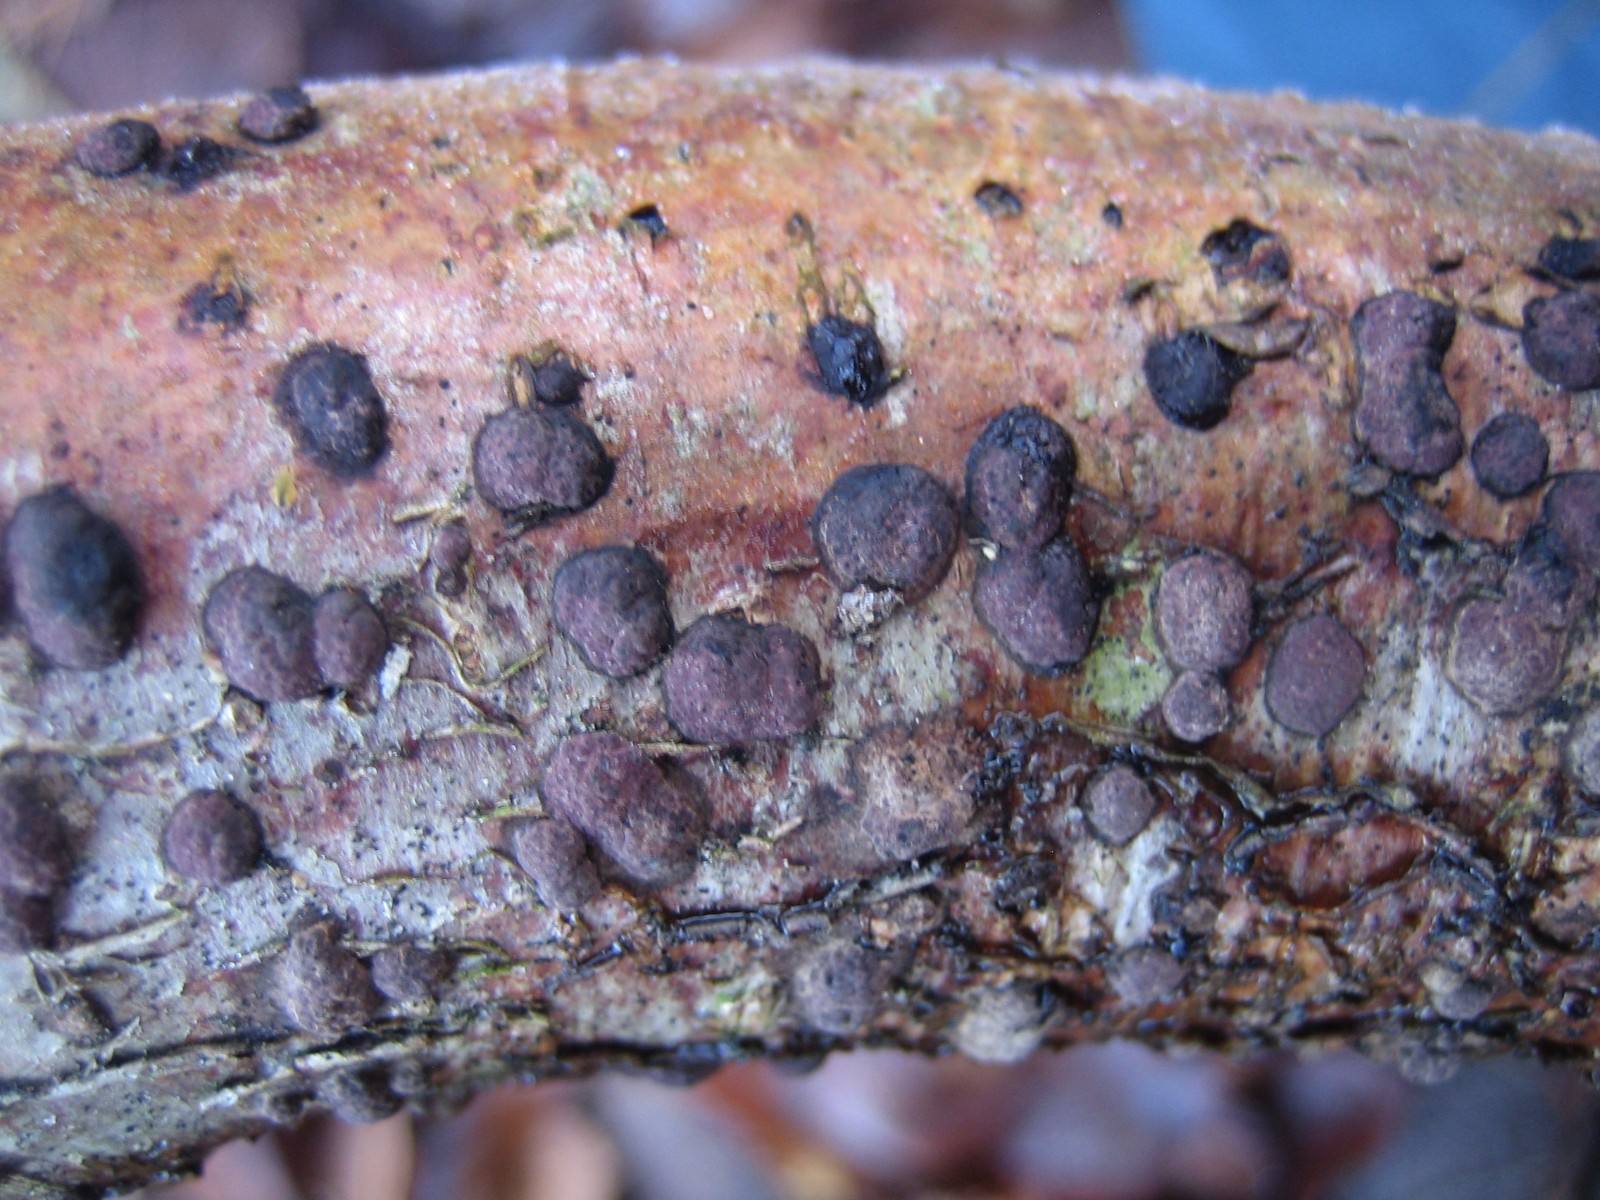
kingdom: Fungi
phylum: Ascomycota
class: Sordariomycetes
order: Xylariales
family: Hypoxylaceae
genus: Hypoxylon
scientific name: Hypoxylon fuscum
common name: kegleformet kulbær
